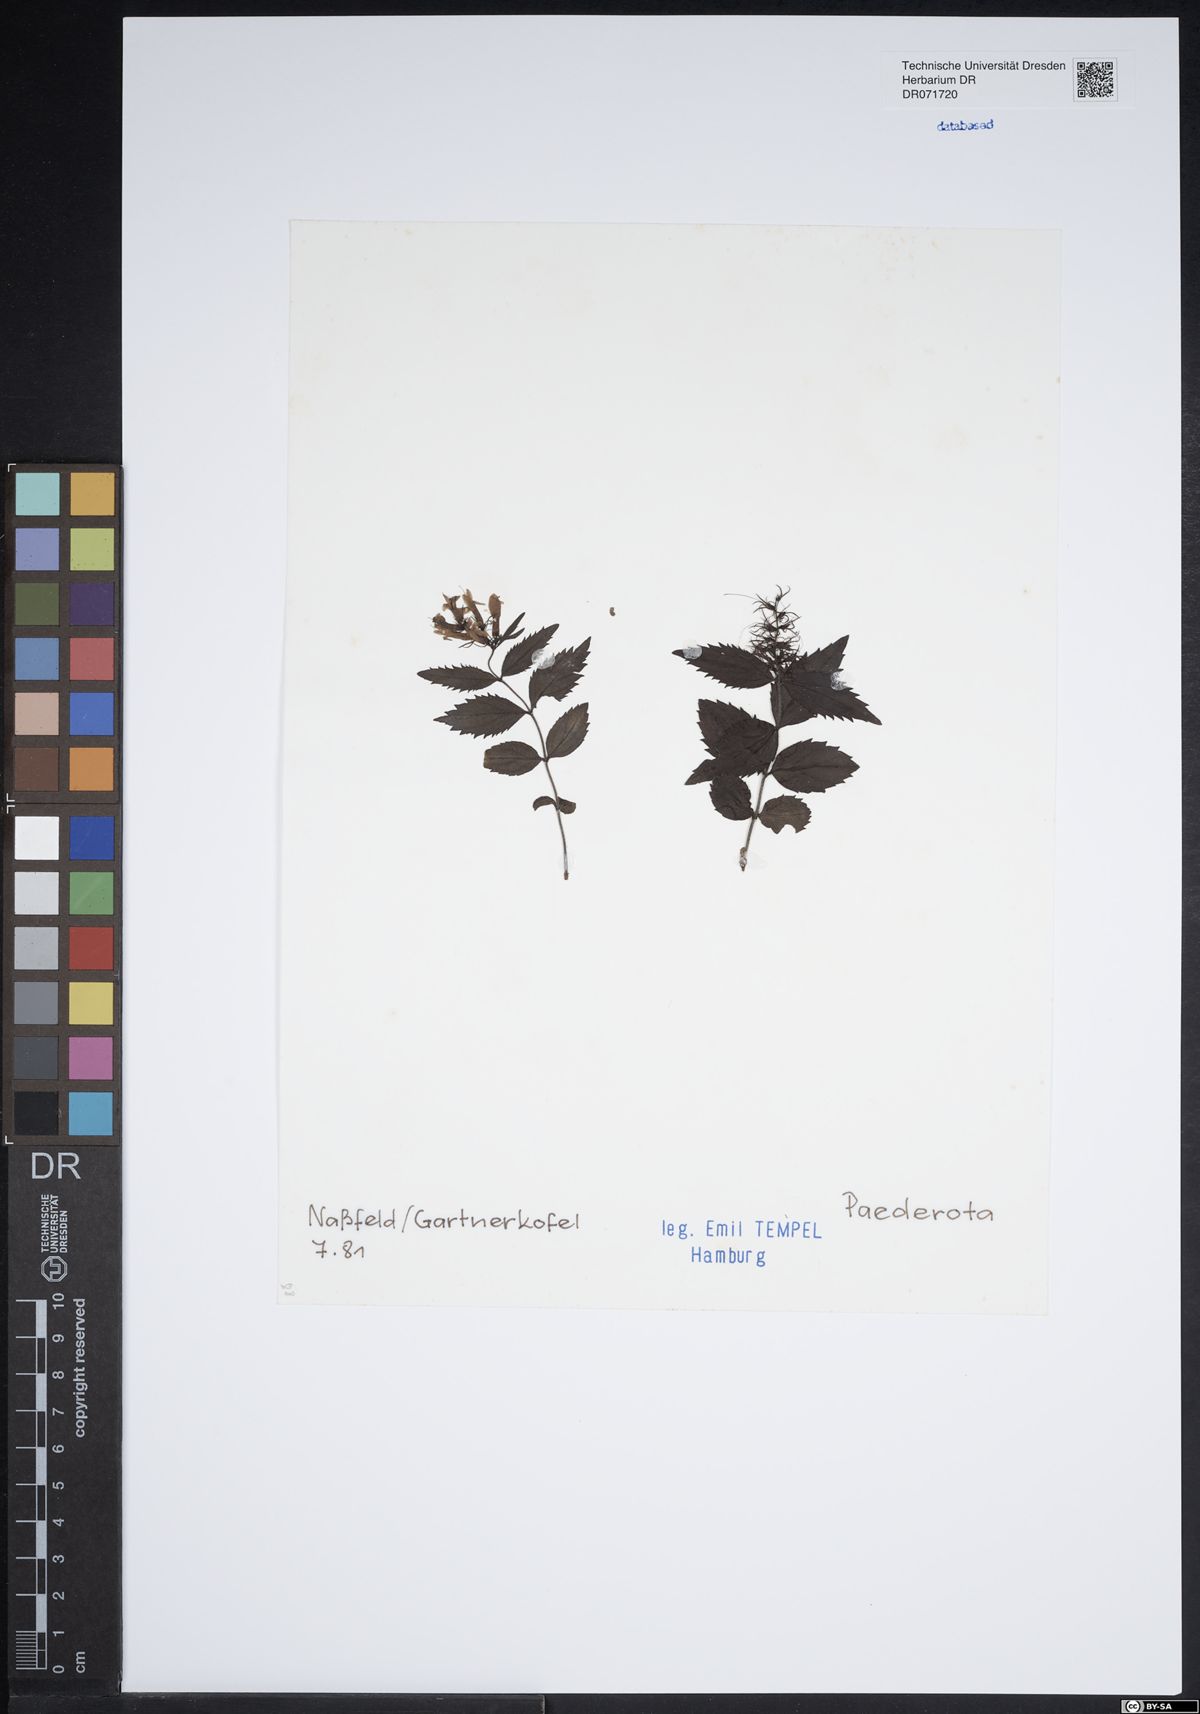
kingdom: Plantae
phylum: Tracheophyta
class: Magnoliopsida
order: Lamiales
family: Plantaginaceae
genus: Paederota
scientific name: Paederota
